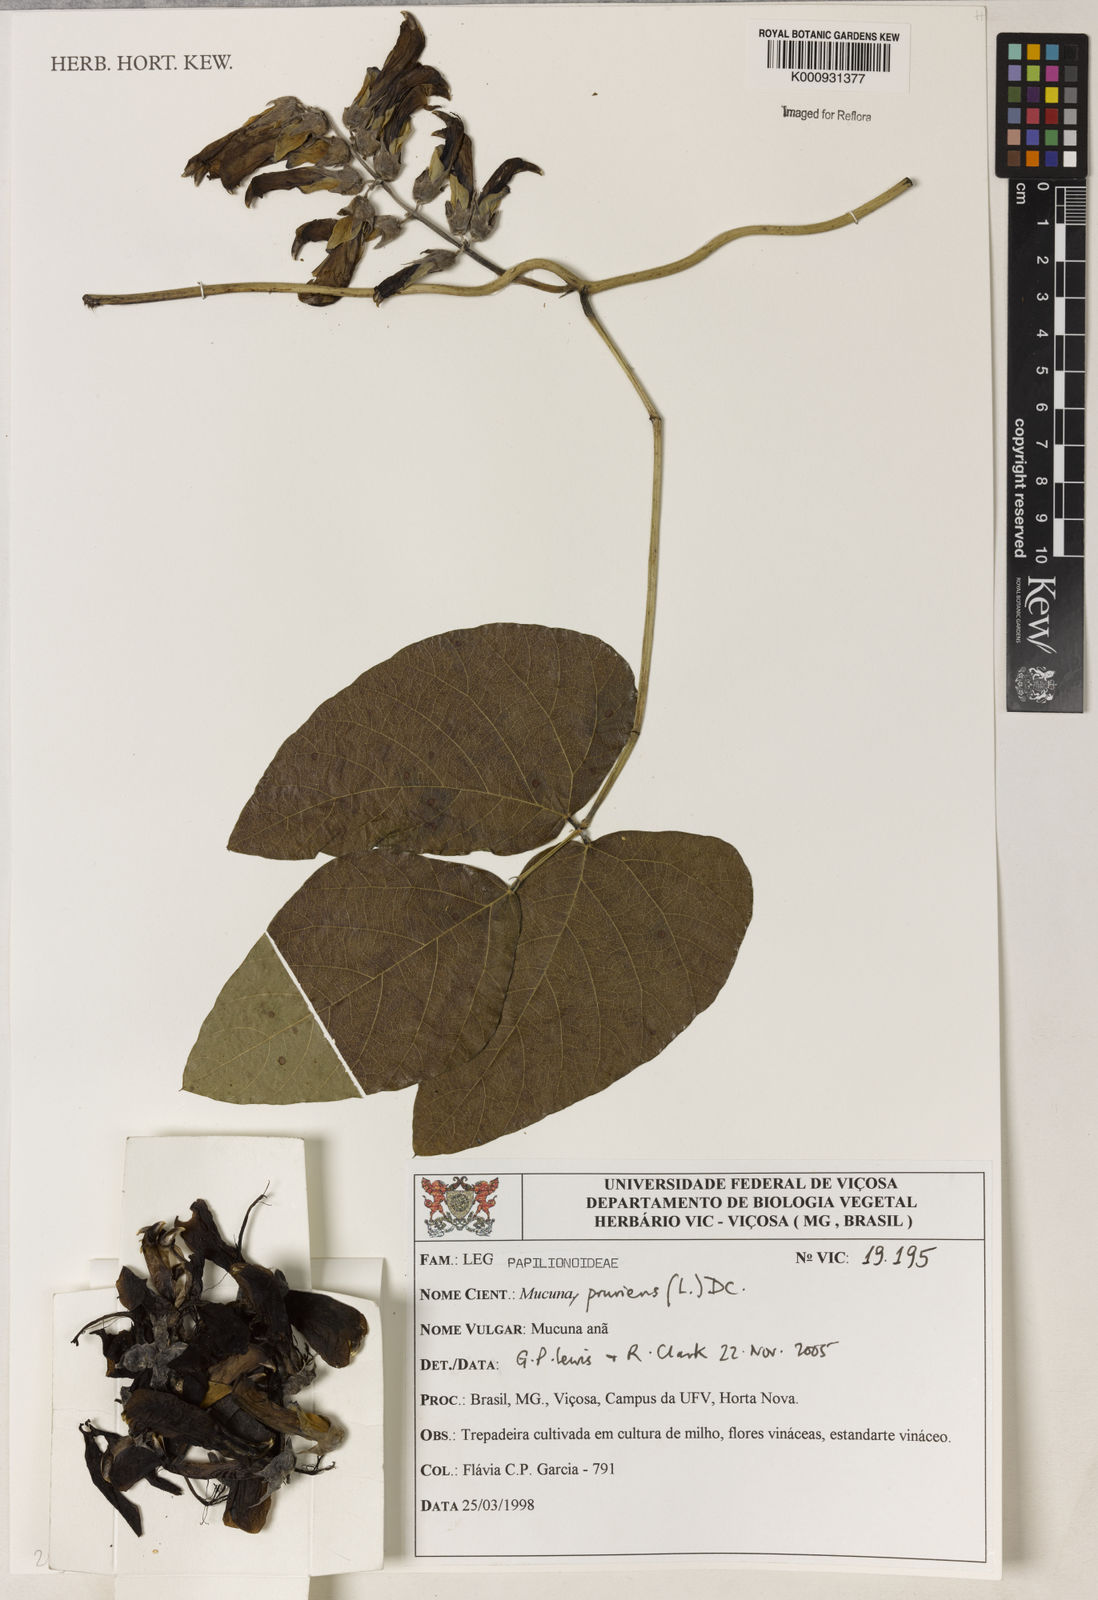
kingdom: Plantae
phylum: Tracheophyta
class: Magnoliopsida
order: Fabales
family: Fabaceae
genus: Mucuna
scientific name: Mucuna pruriens
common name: Cow-itch
